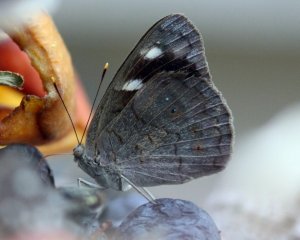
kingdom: Animalia
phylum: Arthropoda
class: Insecta
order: Lepidoptera
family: Nymphalidae
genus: Eunica
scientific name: Eunica monima
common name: Dingy Purplewing
